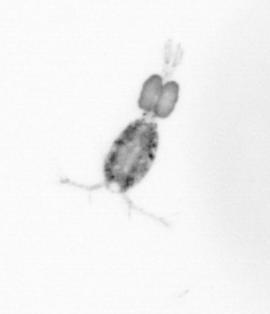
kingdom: Animalia
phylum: Arthropoda
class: Copepoda
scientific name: Copepoda
